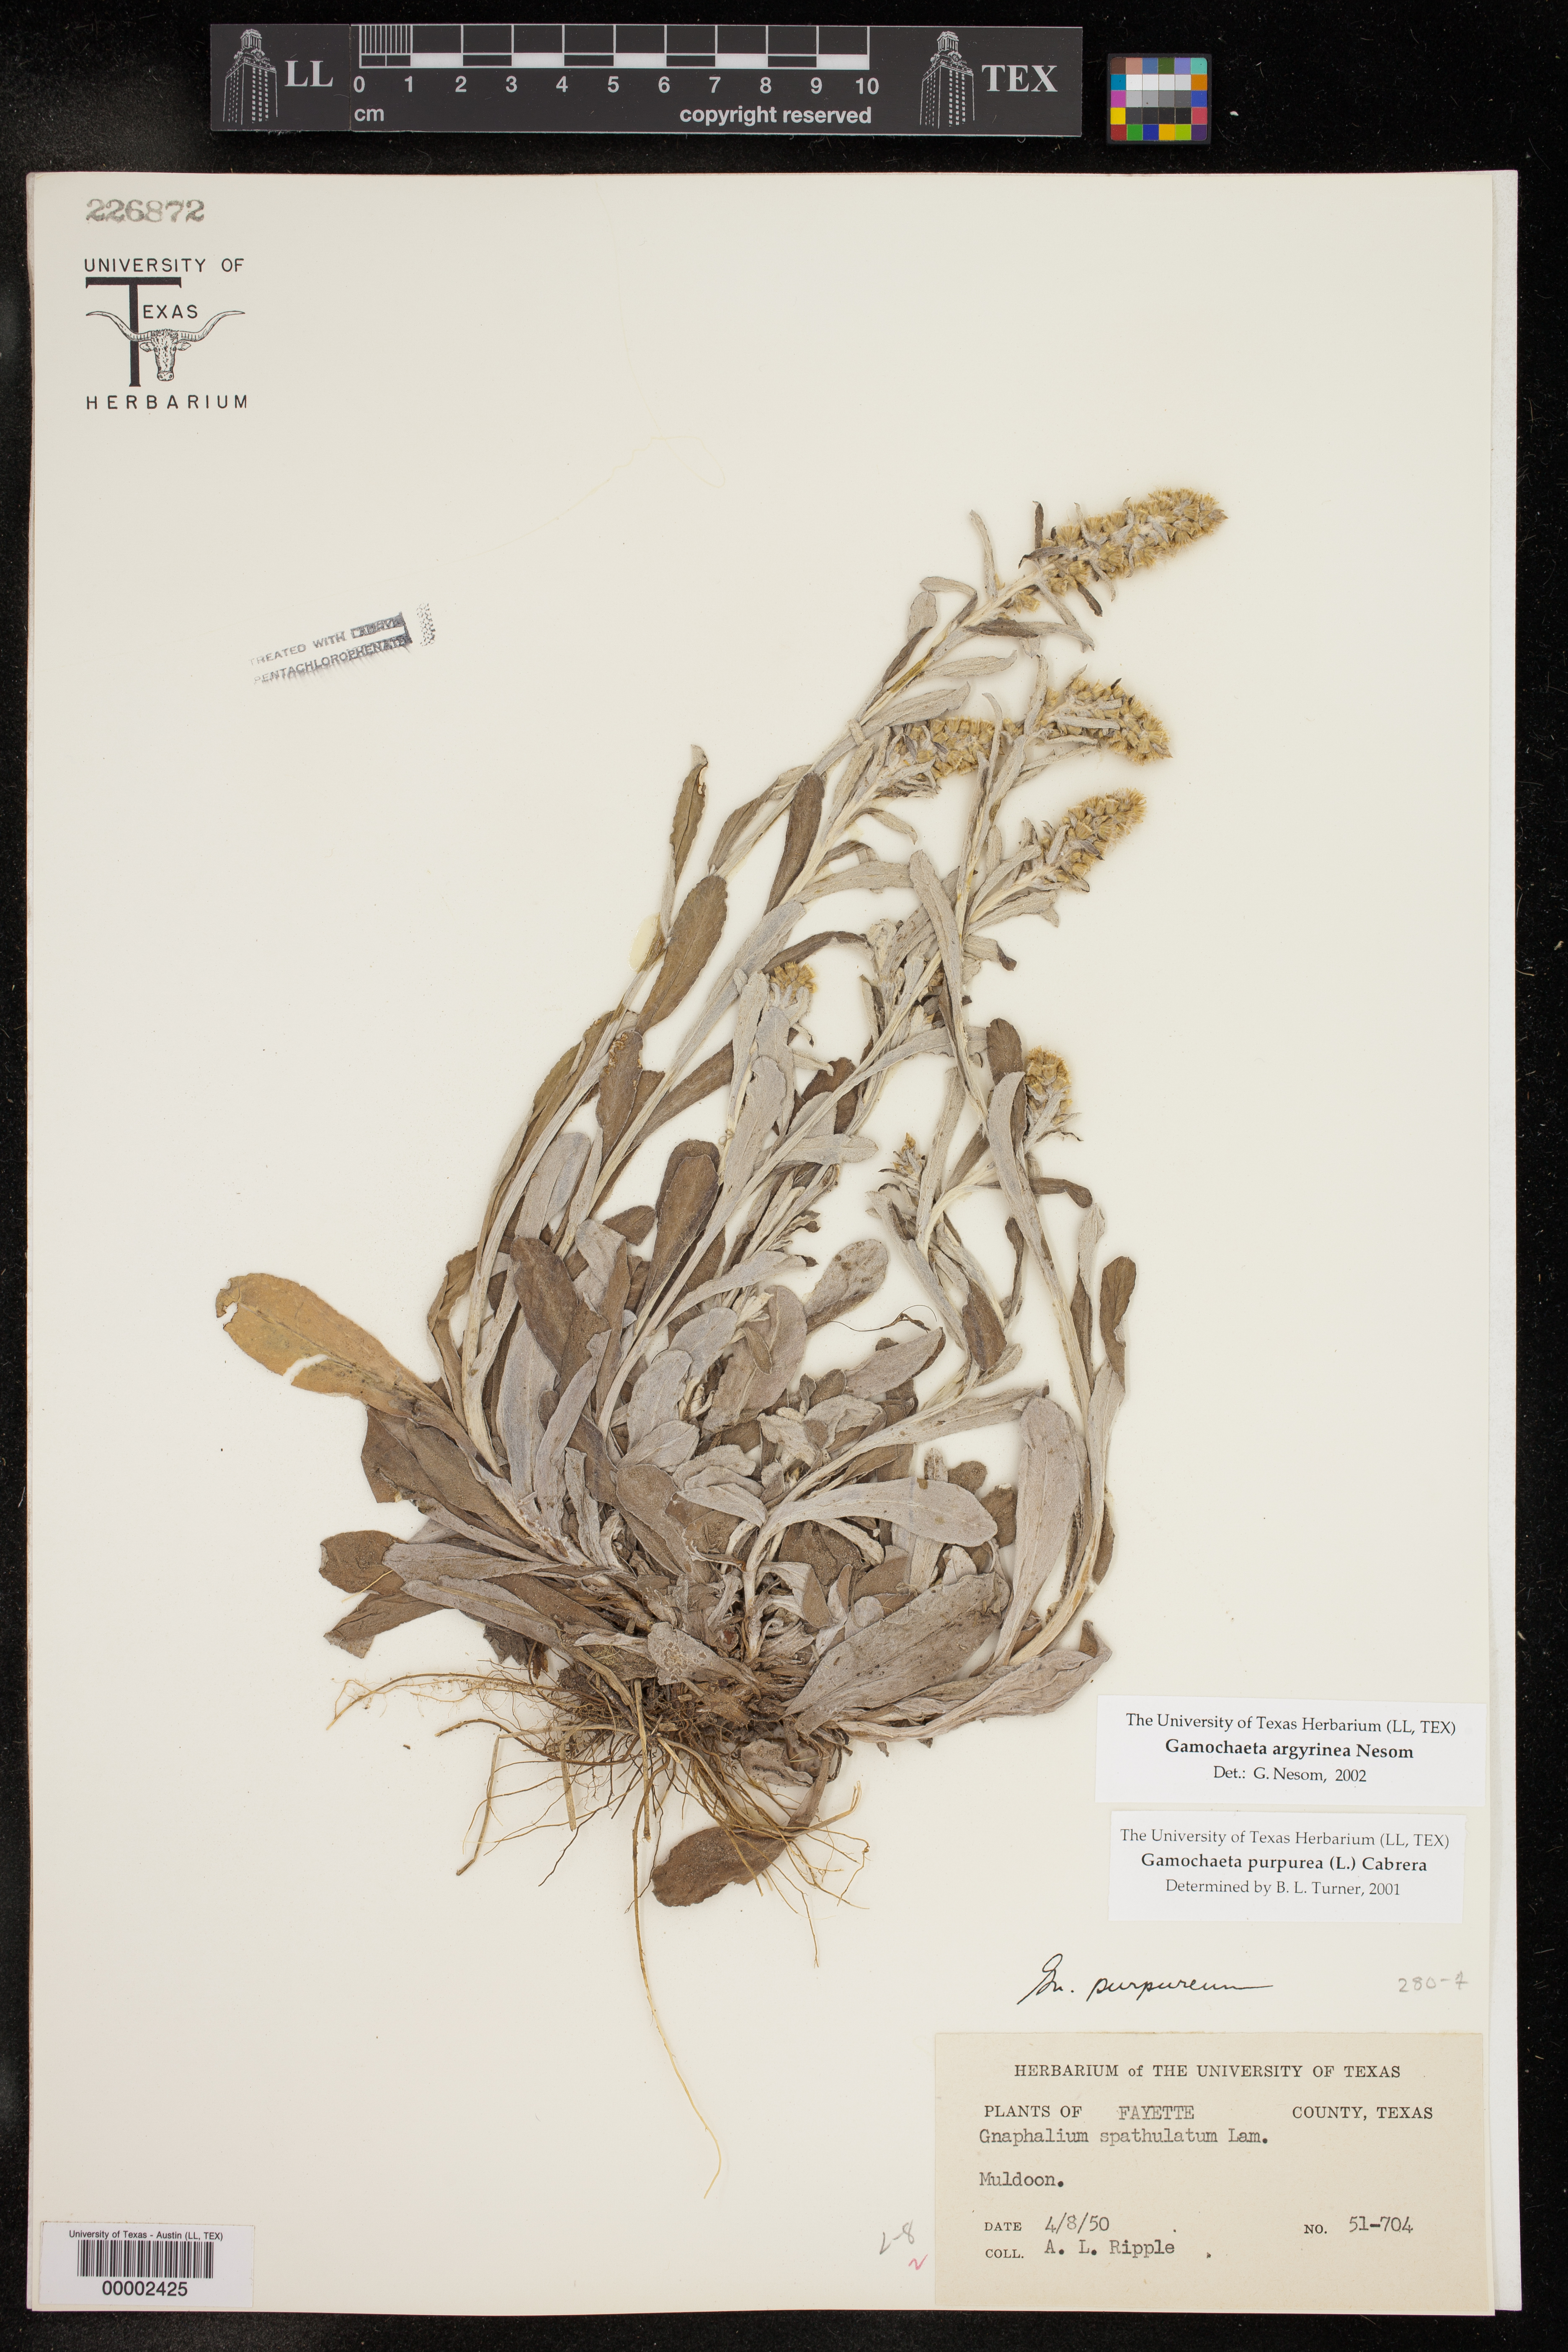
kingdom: Plantae
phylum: Tracheophyta
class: Magnoliopsida
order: Asterales
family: Asteraceae
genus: Gamochaeta
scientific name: Gamochaeta argyrinea
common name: Silvery cudweed
